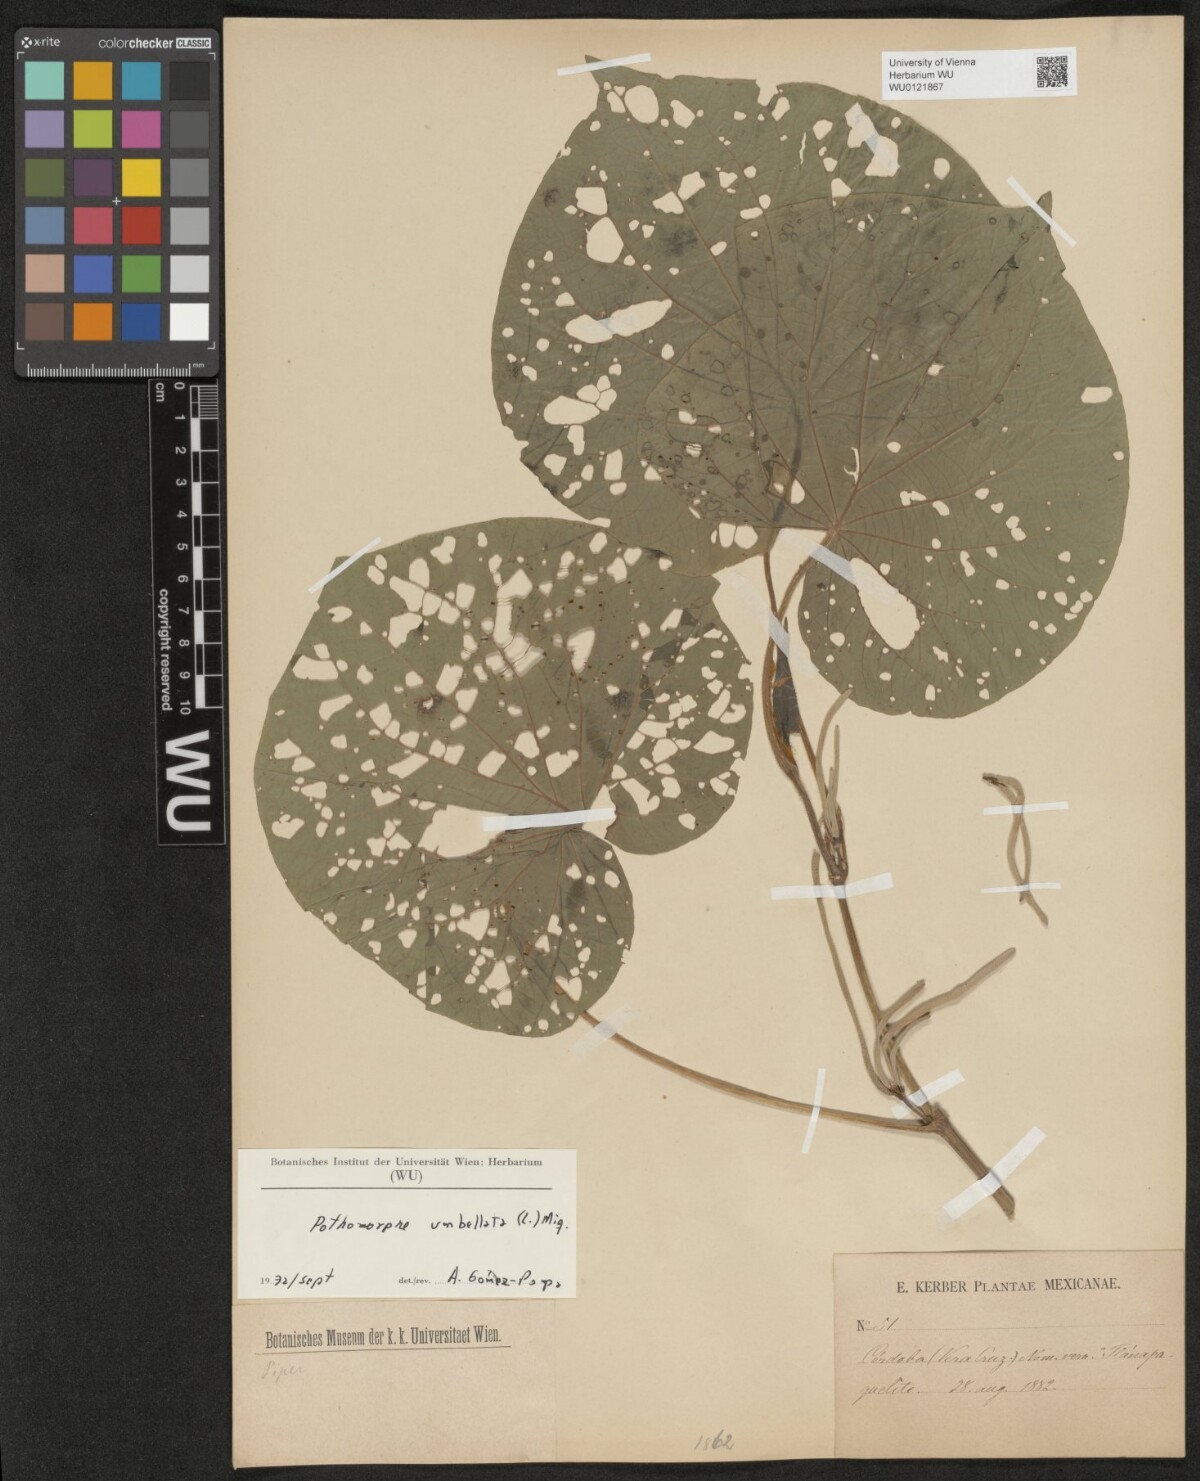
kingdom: Plantae
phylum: Tracheophyta
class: Magnoliopsida
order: Piperales
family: Piperaceae
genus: Piper
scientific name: Piper umbellatum
